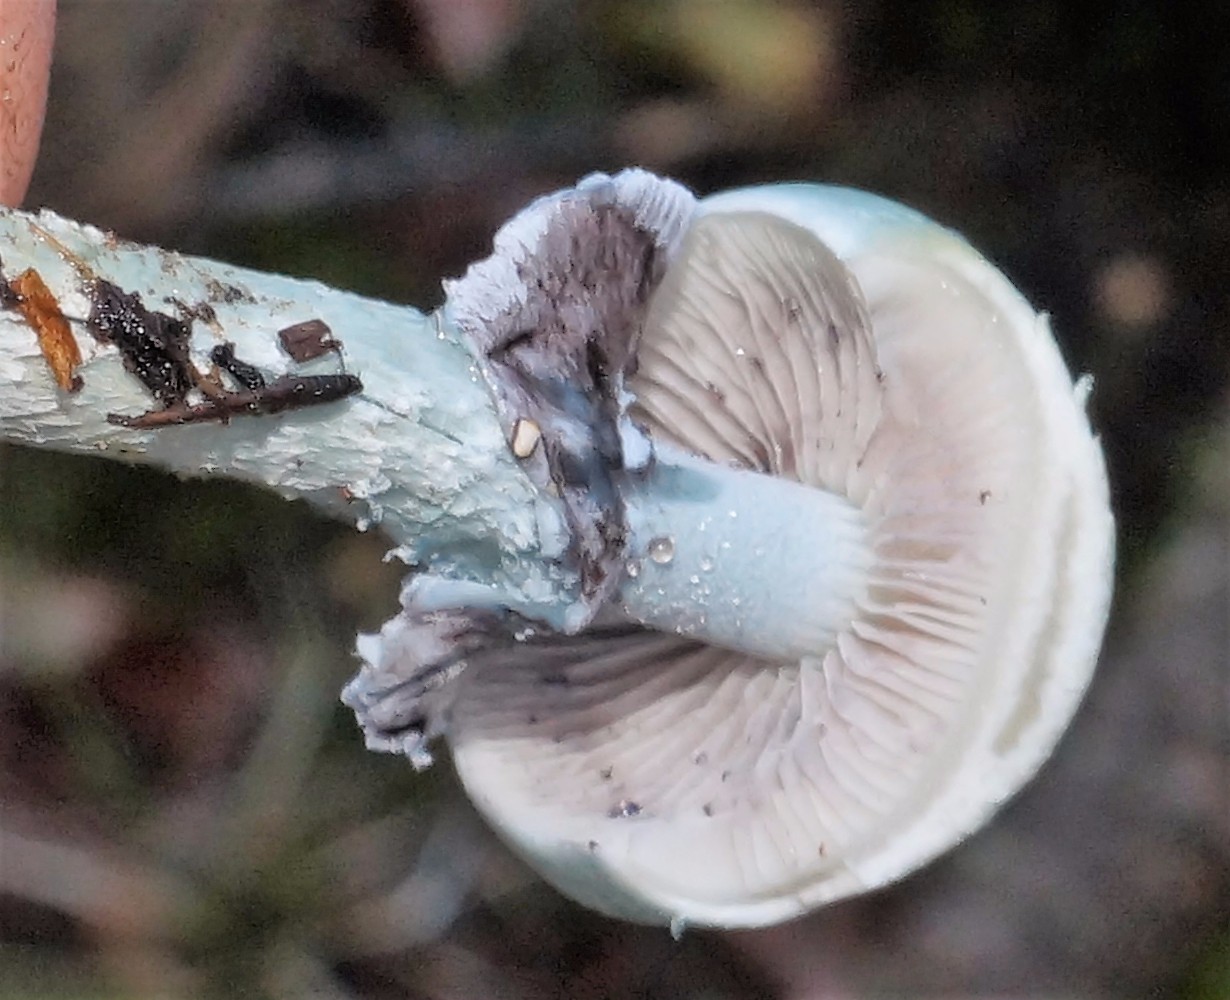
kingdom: Fungi
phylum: Basidiomycota
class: Agaricomycetes
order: Agaricales
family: Strophariaceae
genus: Stropharia
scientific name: Stropharia aeruginosa
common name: spanskgrøn bredblad
